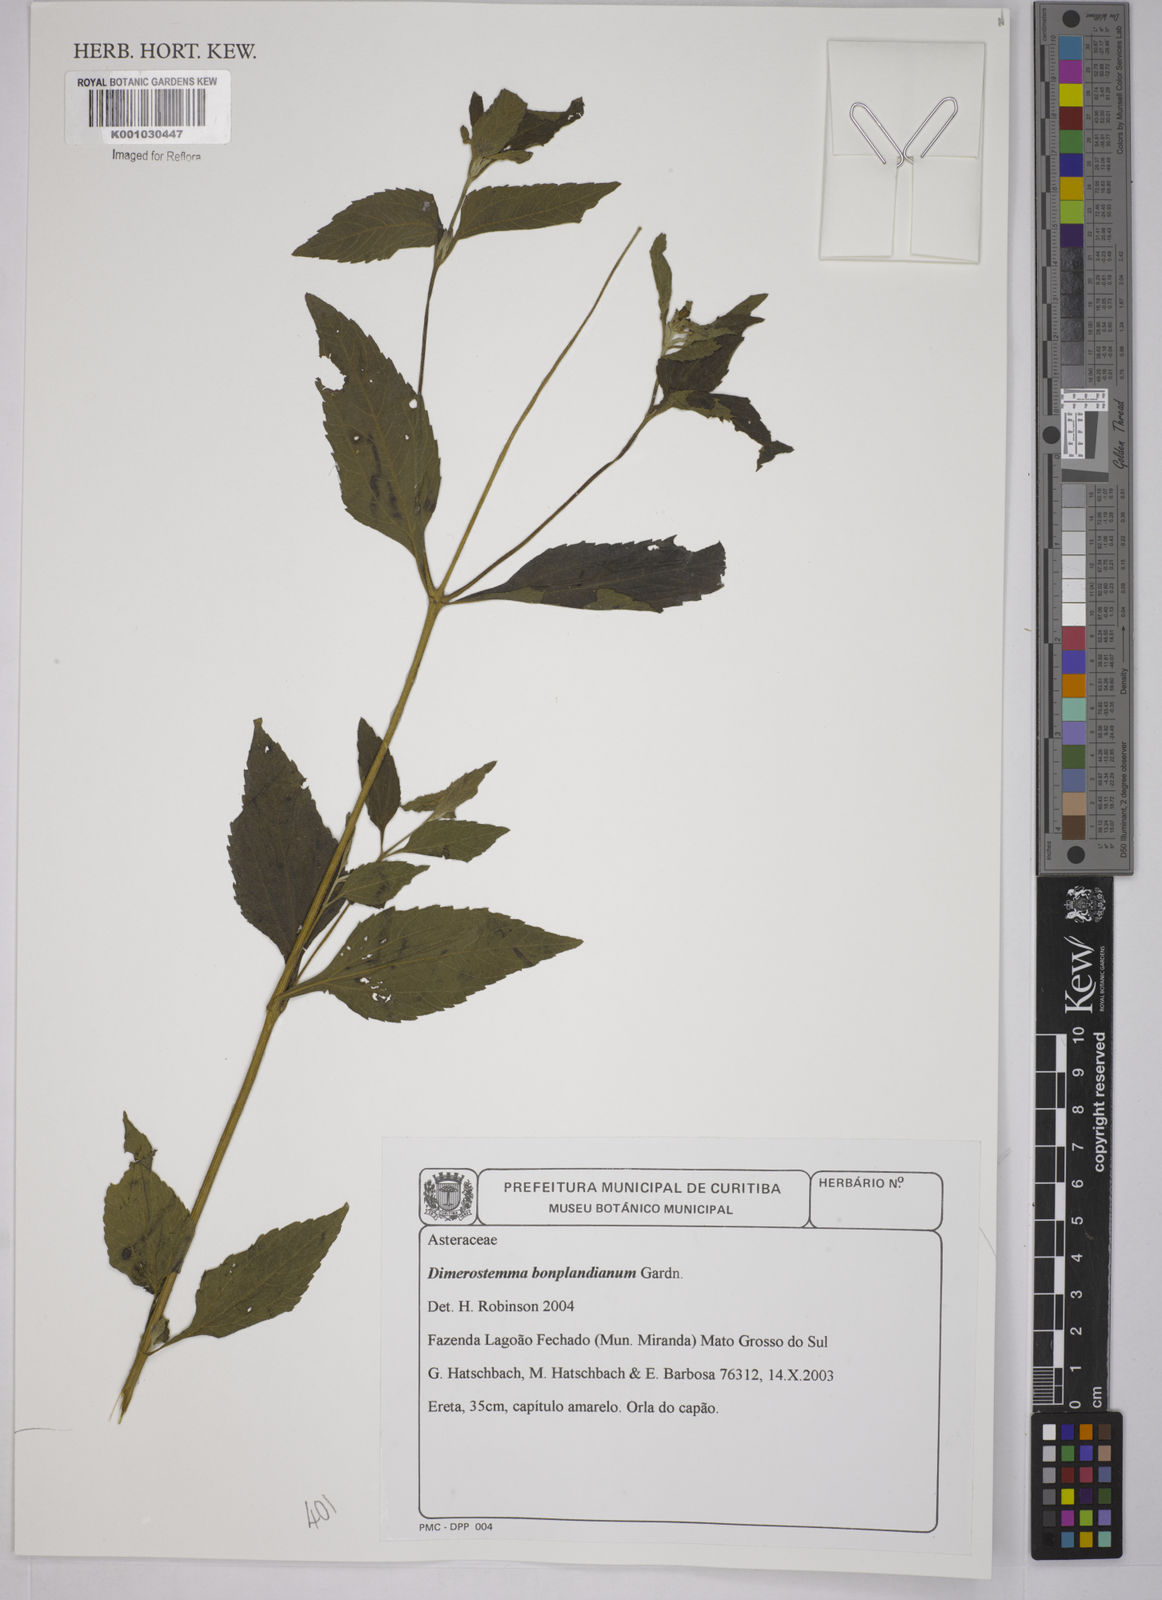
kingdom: Plantae
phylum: Tracheophyta
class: Magnoliopsida
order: Asterales
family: Asteraceae
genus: Dimerostemma
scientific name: Dimerostemma
